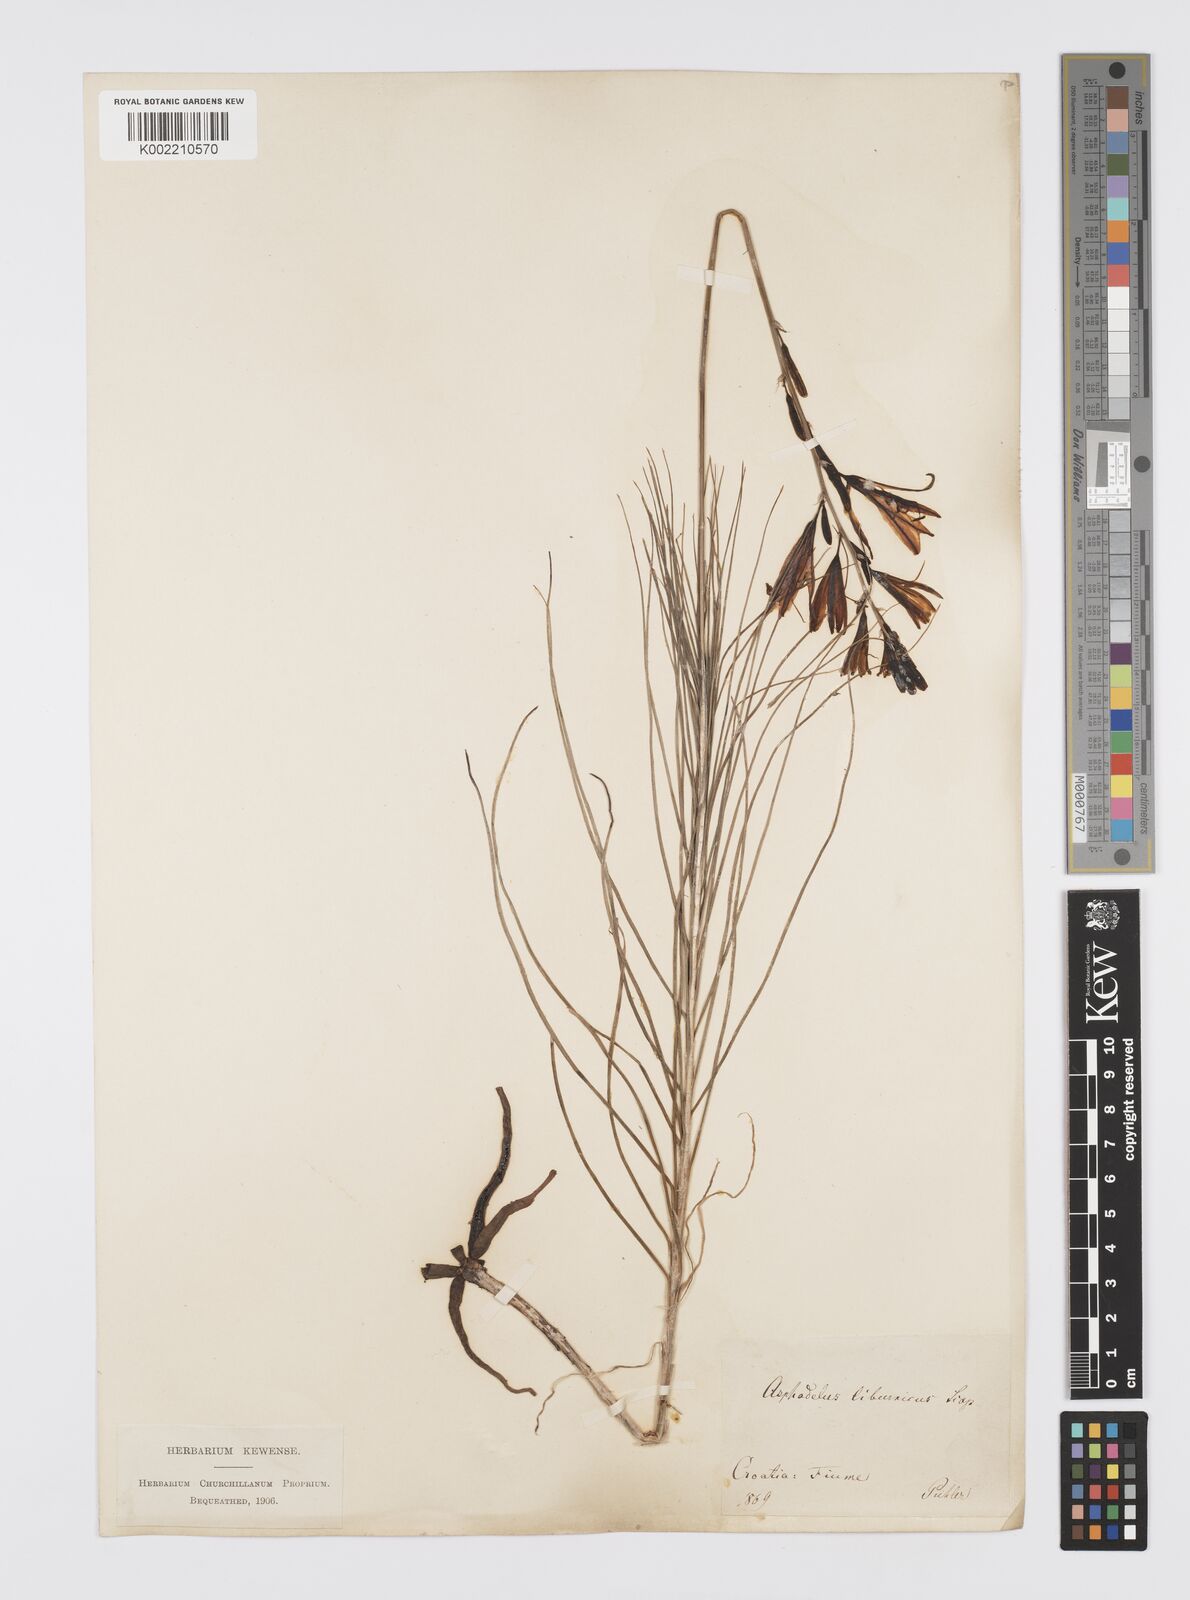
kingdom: Plantae
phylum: Tracheophyta
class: Liliopsida
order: Asparagales
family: Asphodelaceae
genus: Asphodeline
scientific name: Asphodeline liburnica
